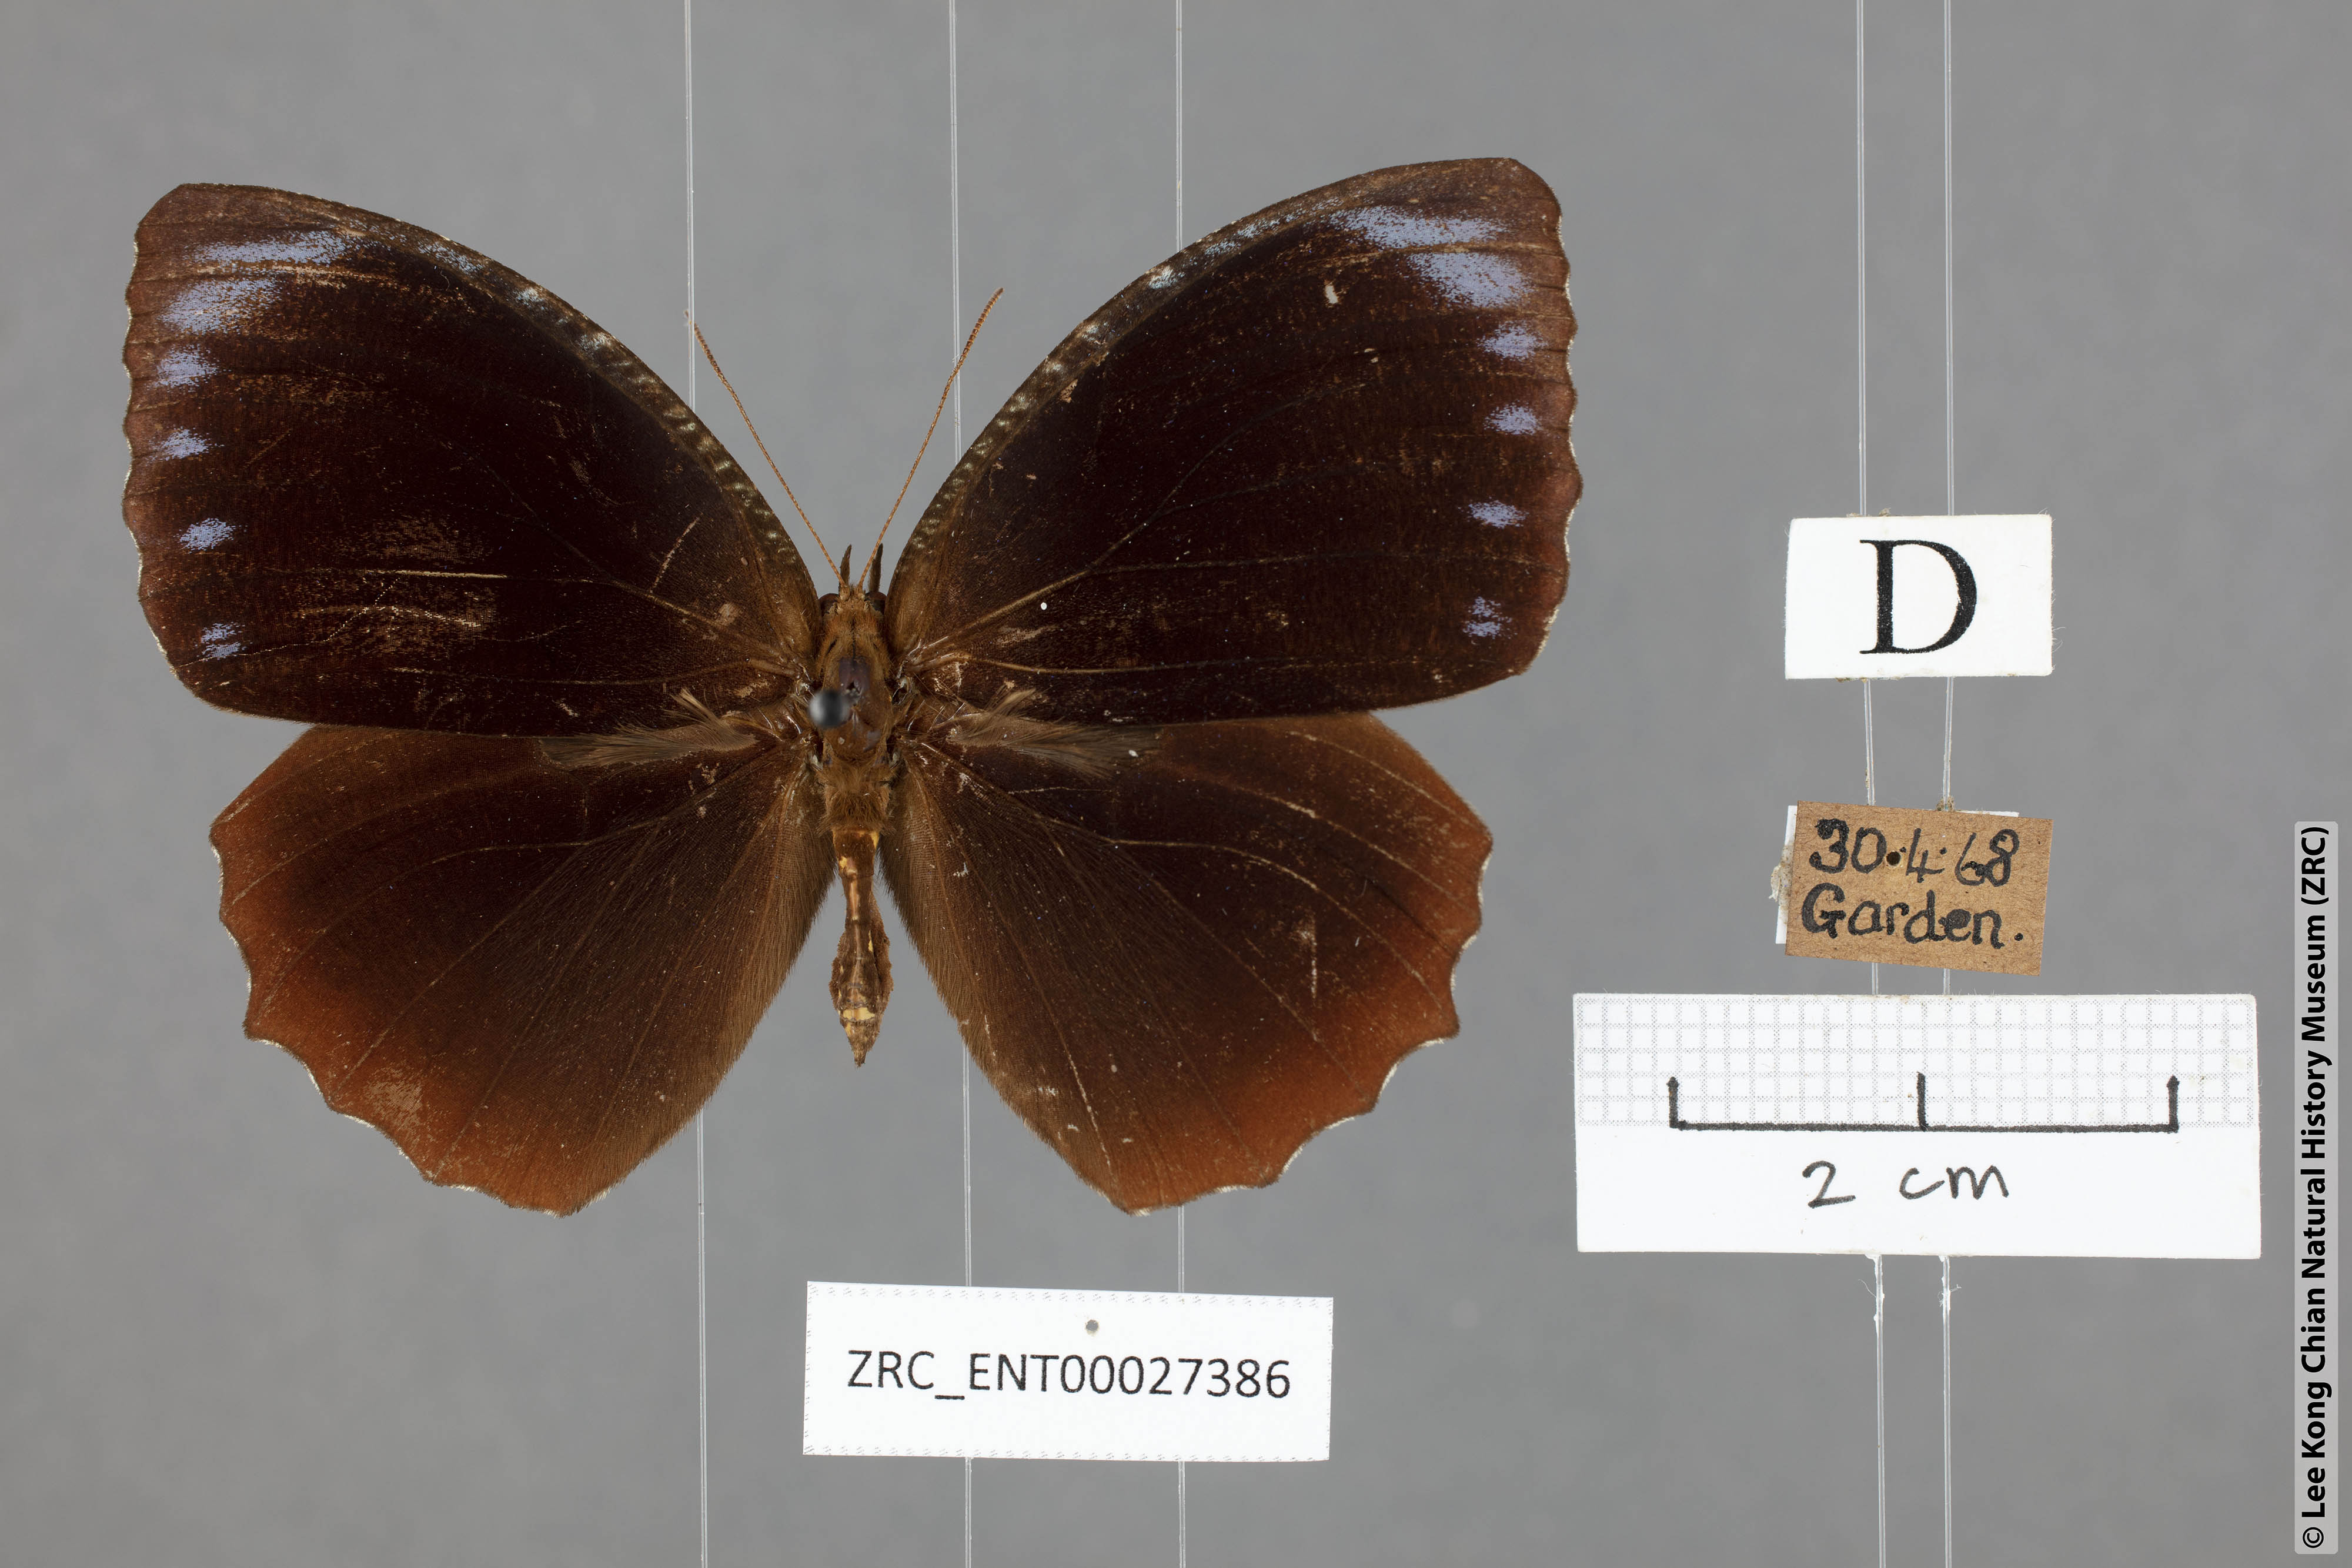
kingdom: Animalia
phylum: Arthropoda
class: Insecta
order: Lepidoptera
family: Nymphalidae
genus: Elymnias
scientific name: Elymnias hypermnestra
